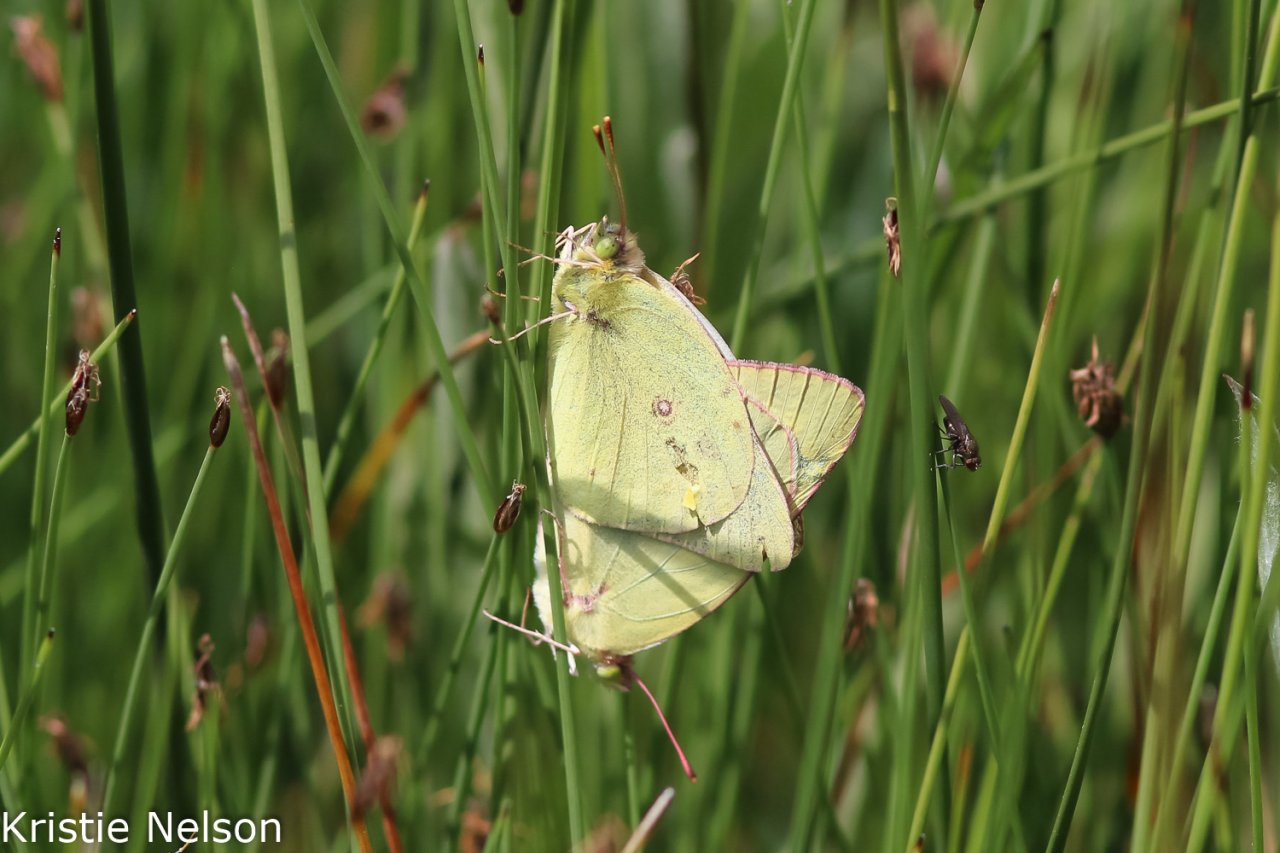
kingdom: Animalia
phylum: Arthropoda
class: Insecta
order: Lepidoptera
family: Pieridae
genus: Colias
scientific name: Colias philodice
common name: Clouded Sulphur
